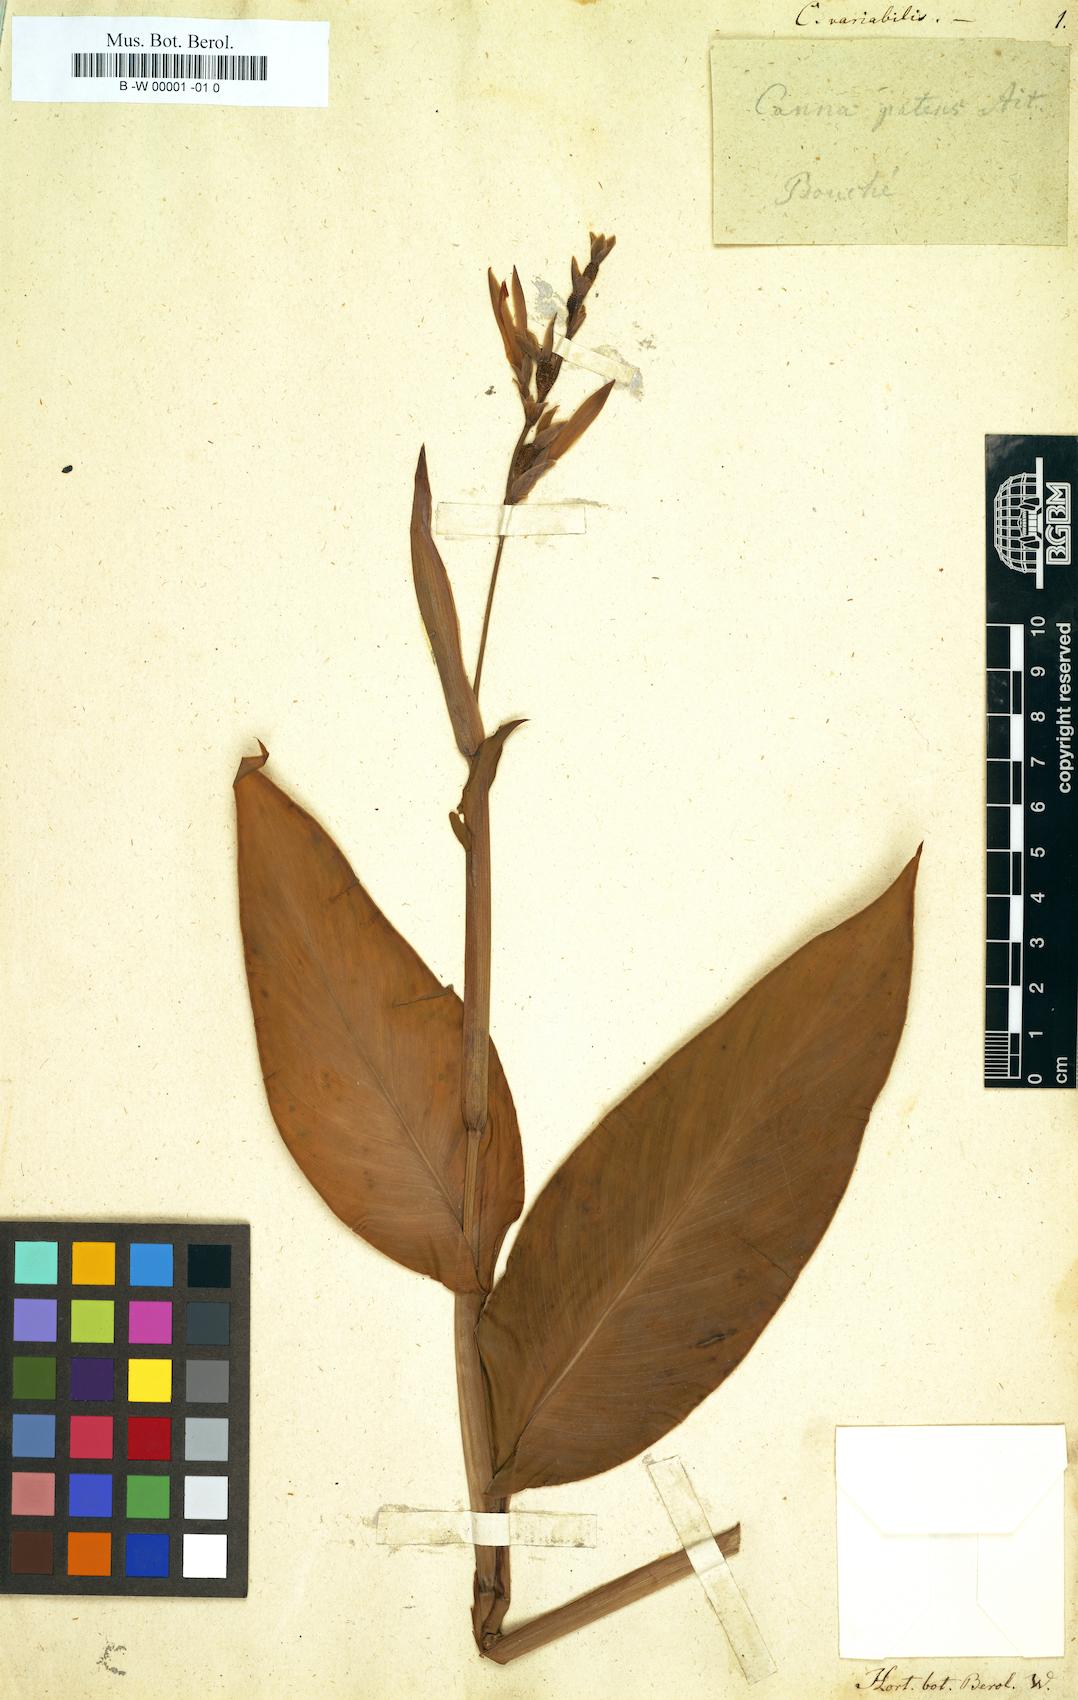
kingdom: Plantae
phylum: Tracheophyta
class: Liliopsida
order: Zingiberales
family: Cannaceae
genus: Canna
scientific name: Canna indica
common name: Indian shot
